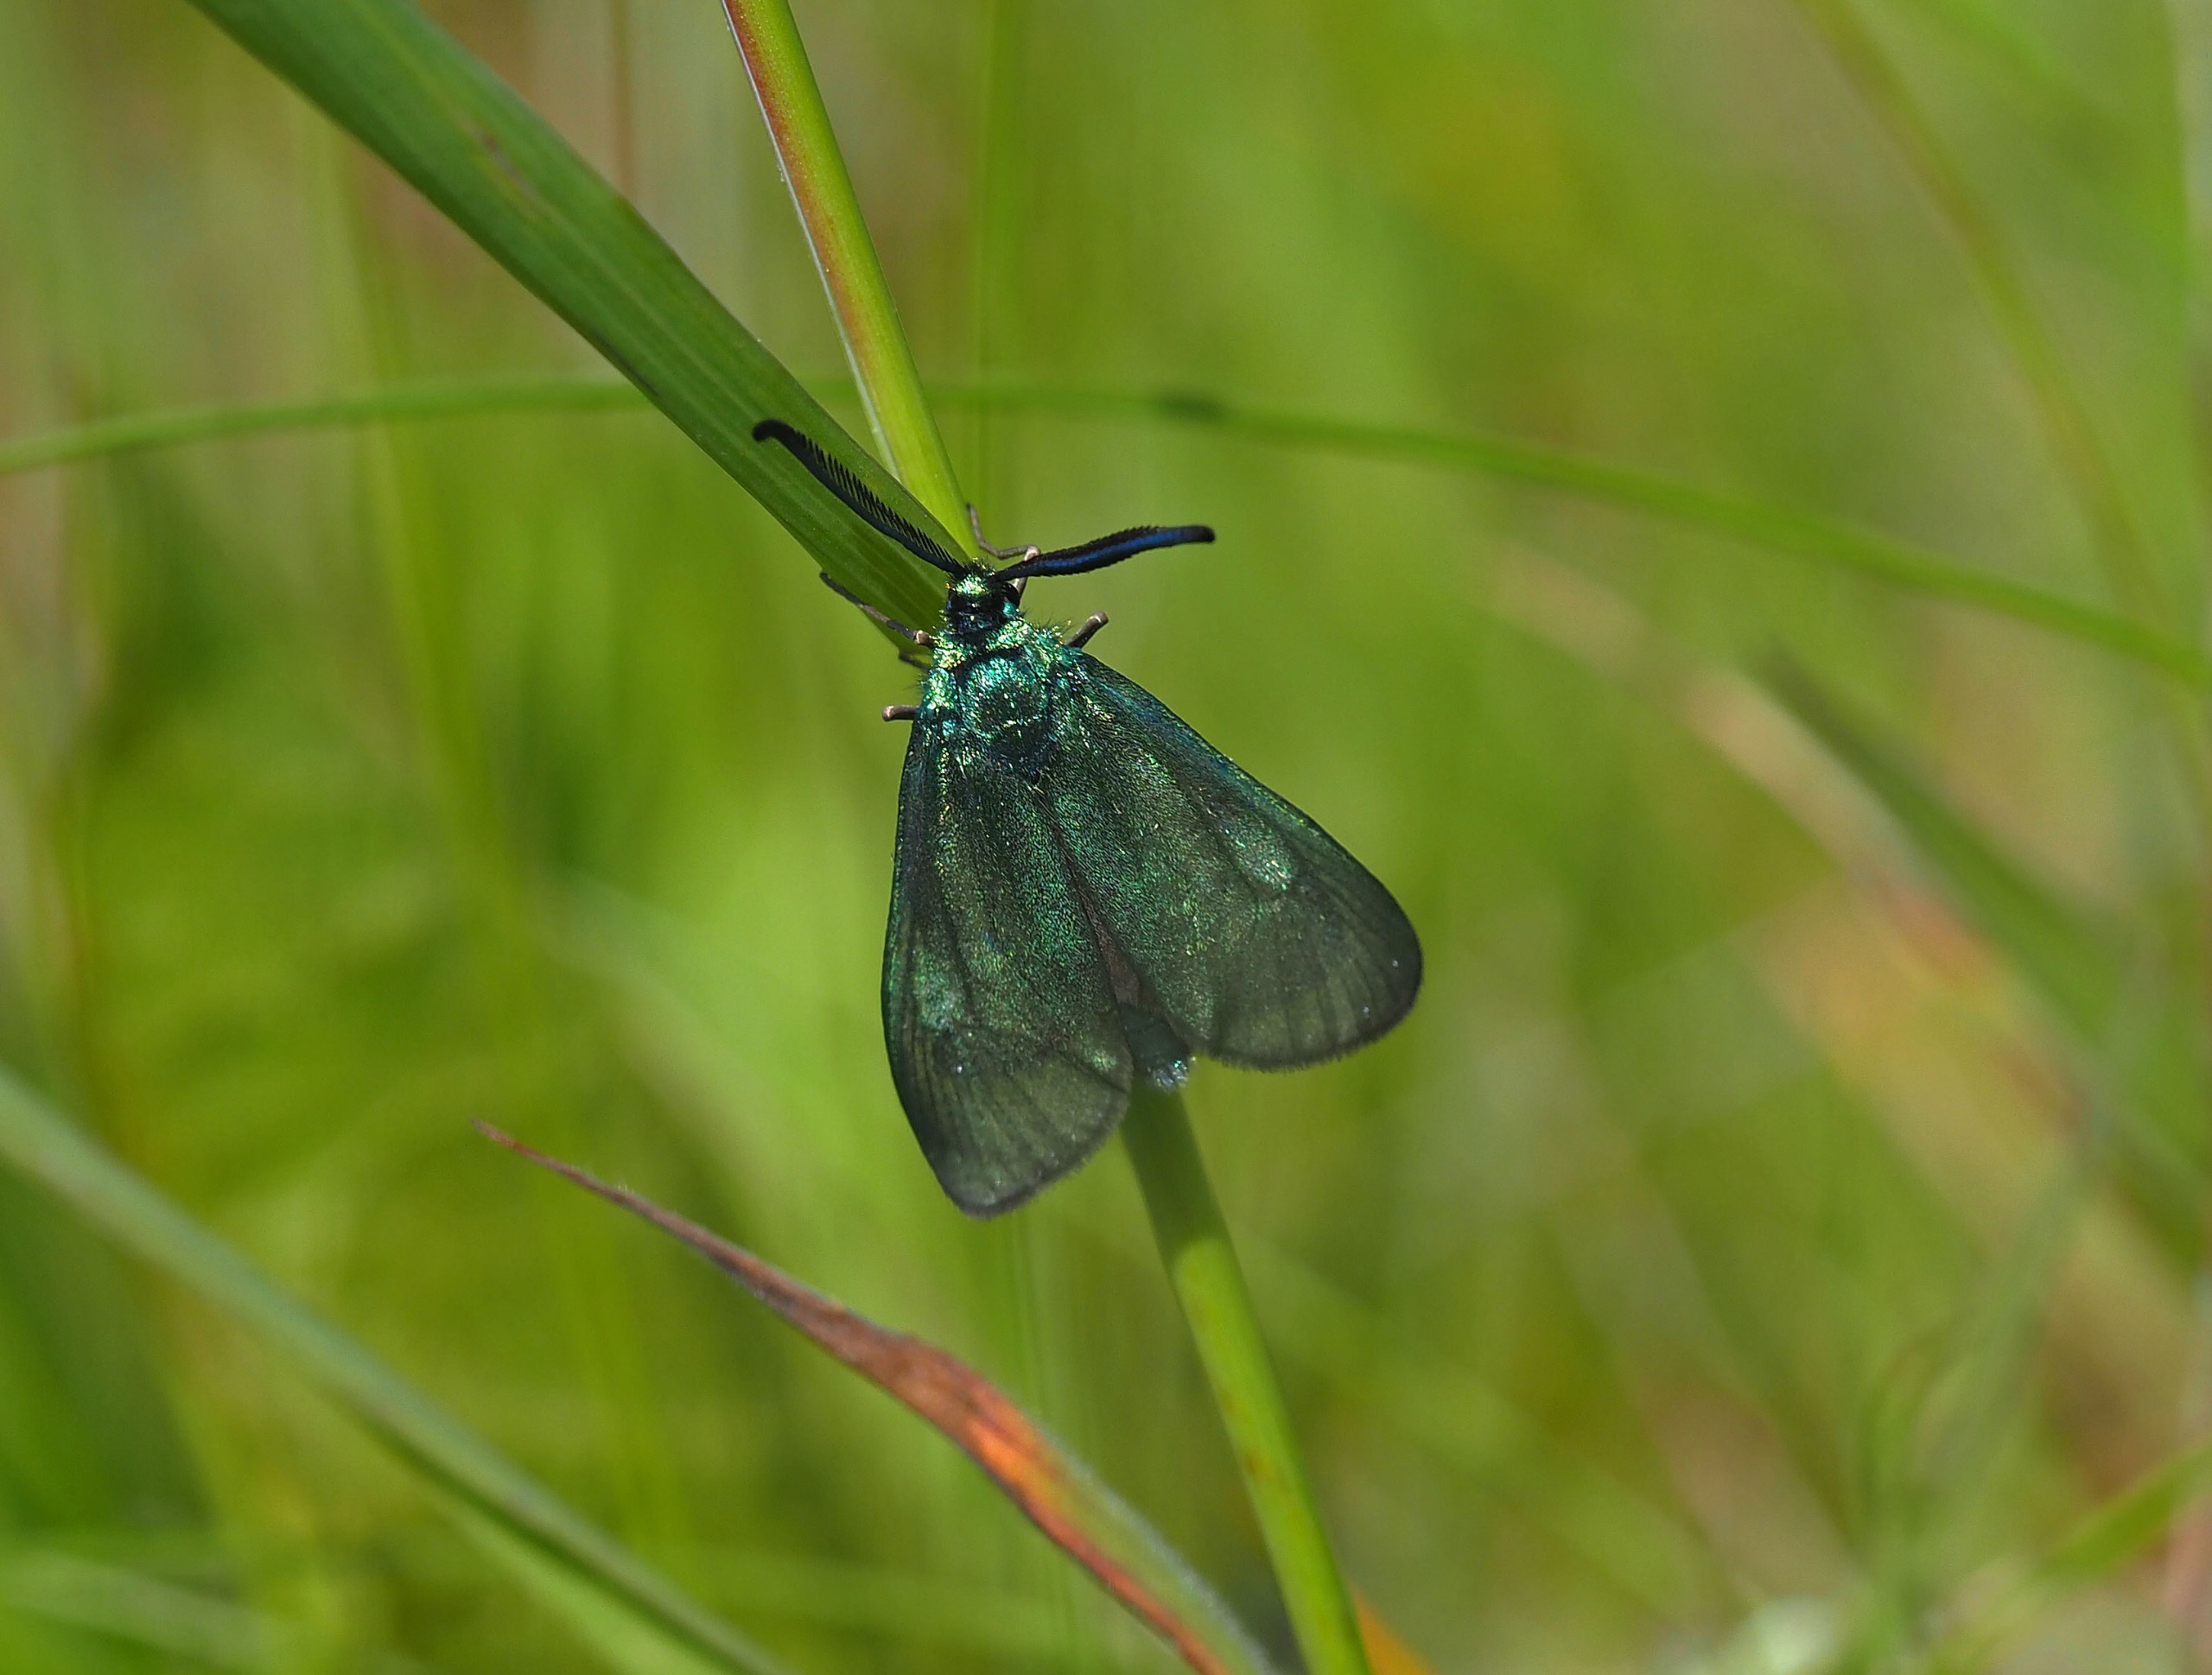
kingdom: Animalia
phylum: Arthropoda
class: Insecta
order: Lepidoptera
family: Zygaenidae
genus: Adscita
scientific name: Adscita statices
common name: Metalvinge
